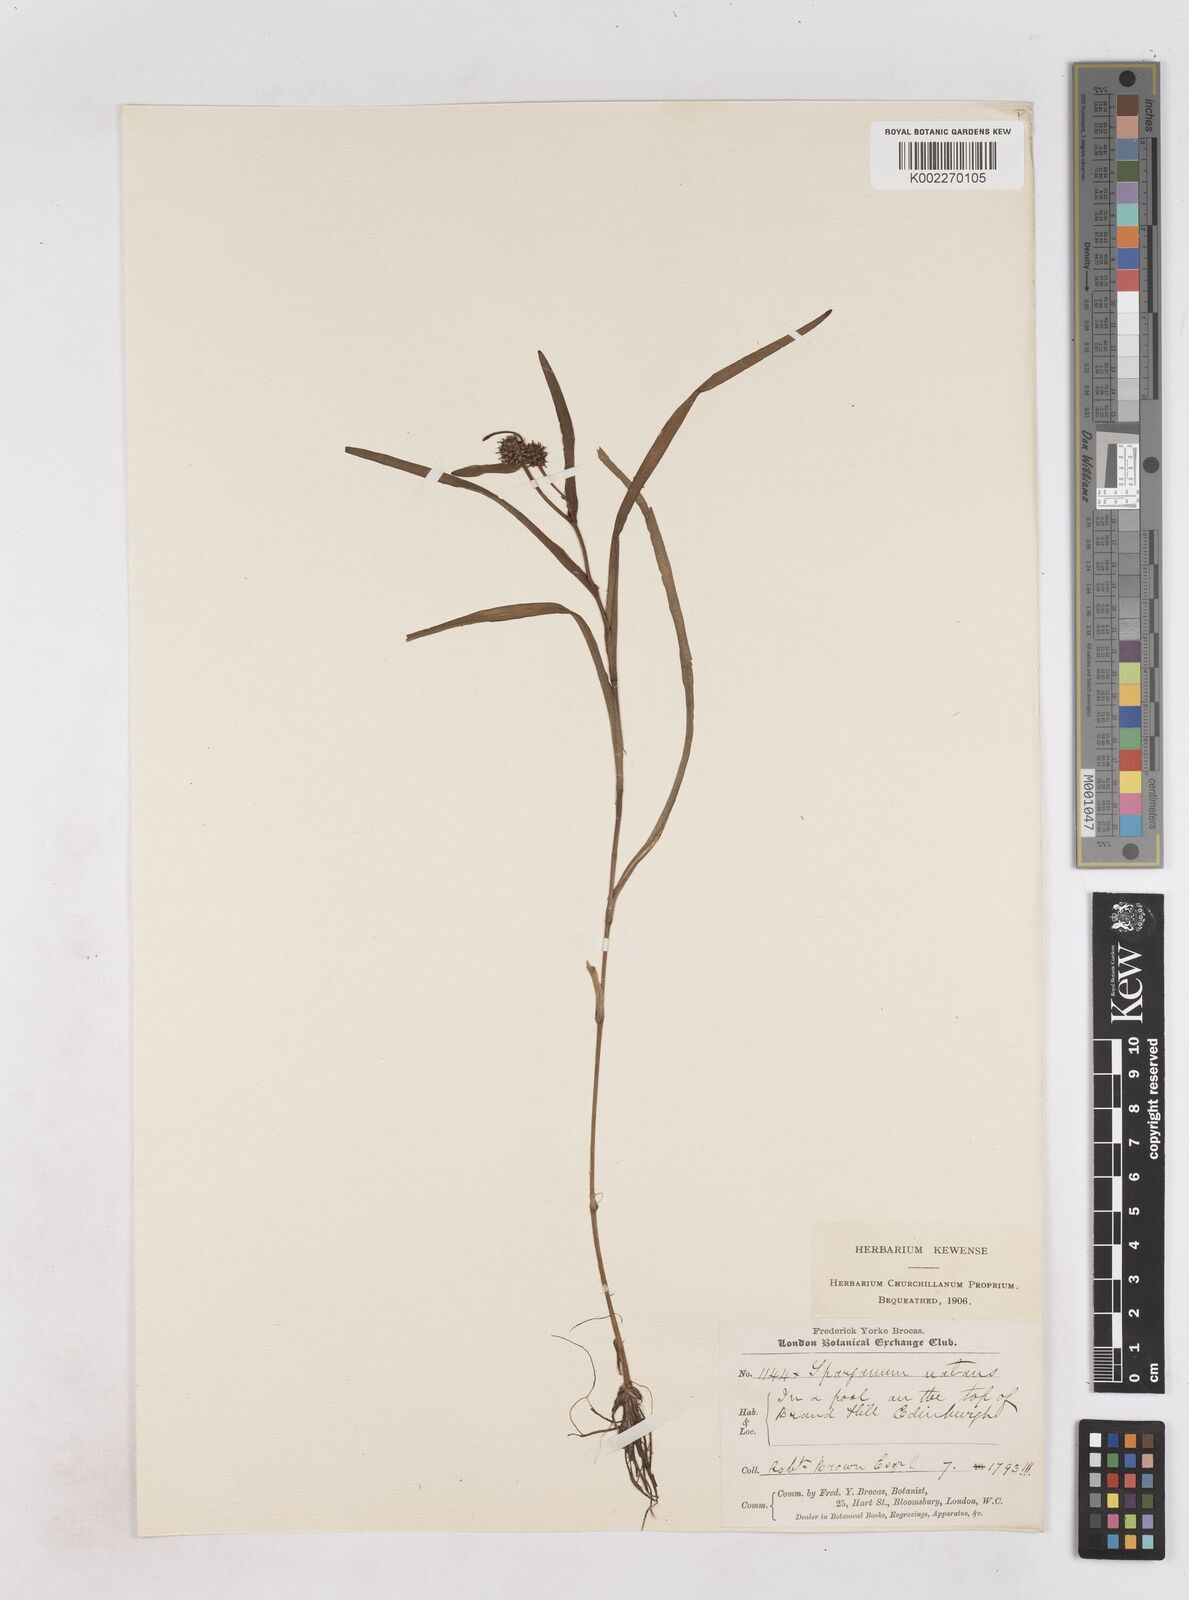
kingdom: Plantae
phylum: Tracheophyta
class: Liliopsida
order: Poales
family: Typhaceae
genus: Sparganium
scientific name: Sparganium natans
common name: Least bur-reed
